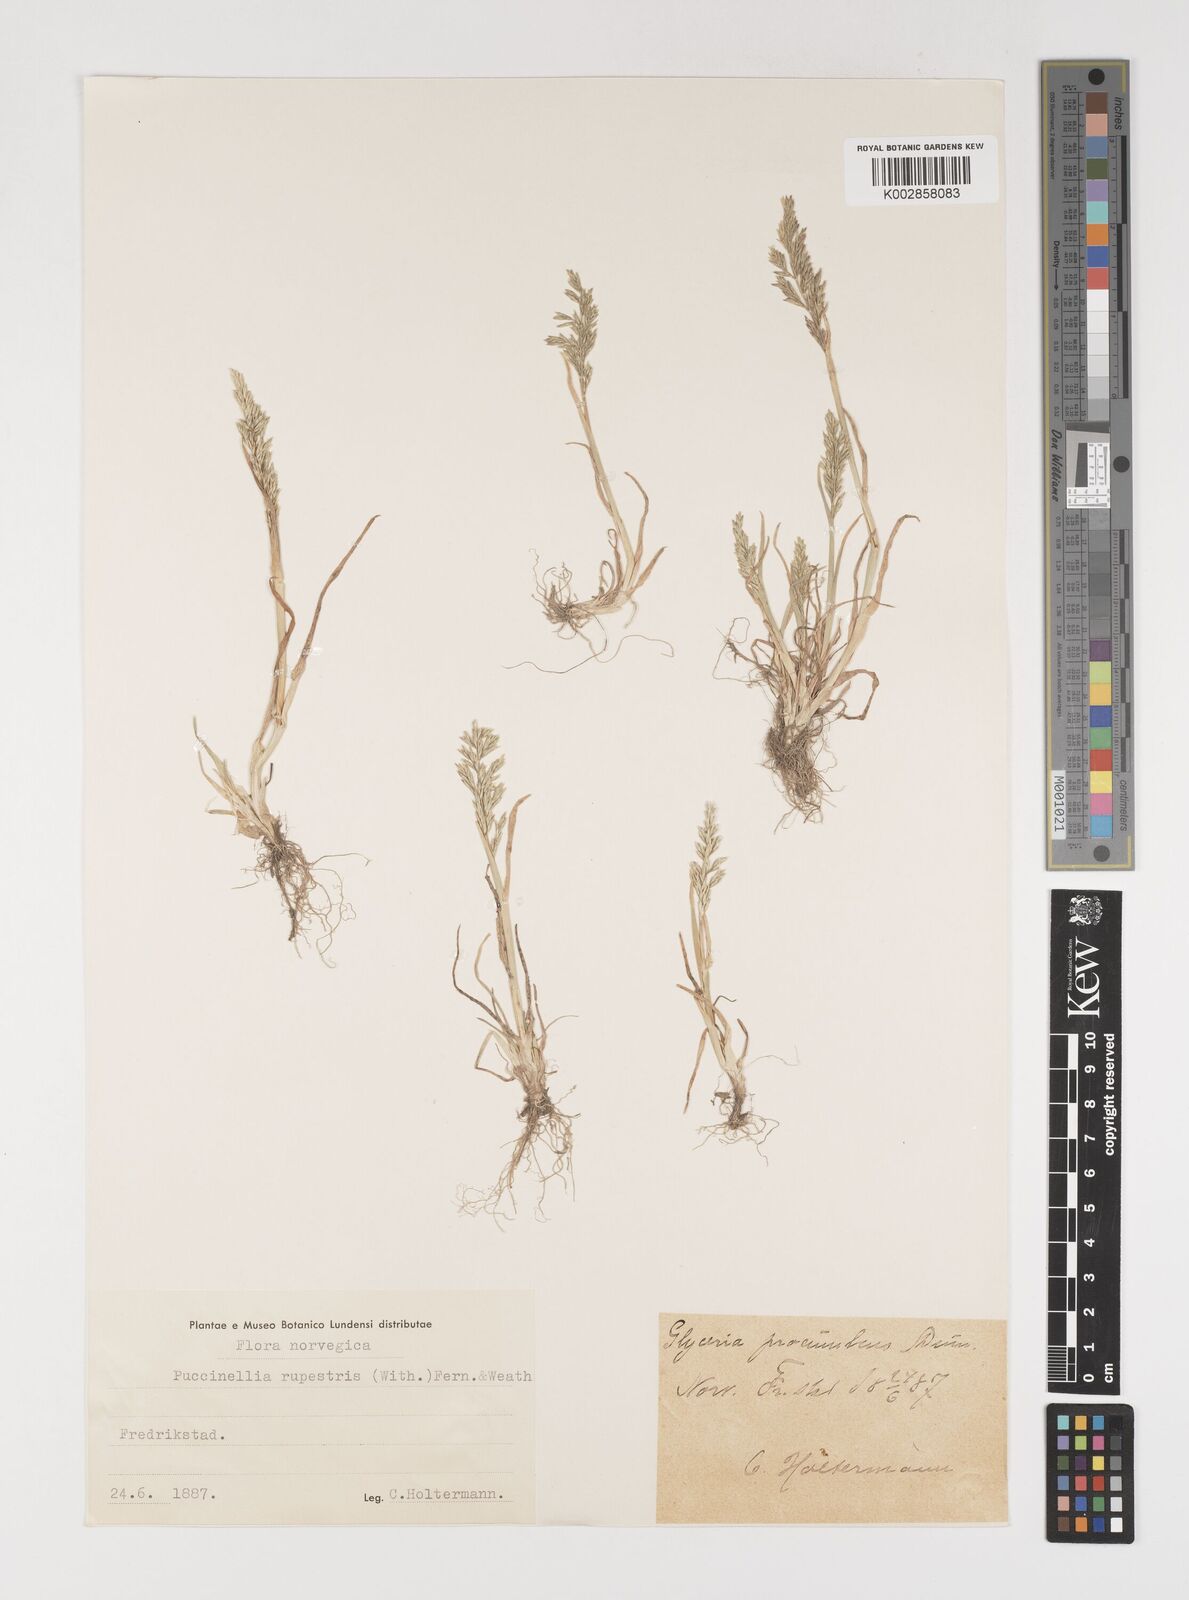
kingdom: Plantae
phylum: Tracheophyta
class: Liliopsida
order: Poales
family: Poaceae
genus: Puccinellia
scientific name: Puccinellia rupestris
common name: Stiff saltmarsh-grass
